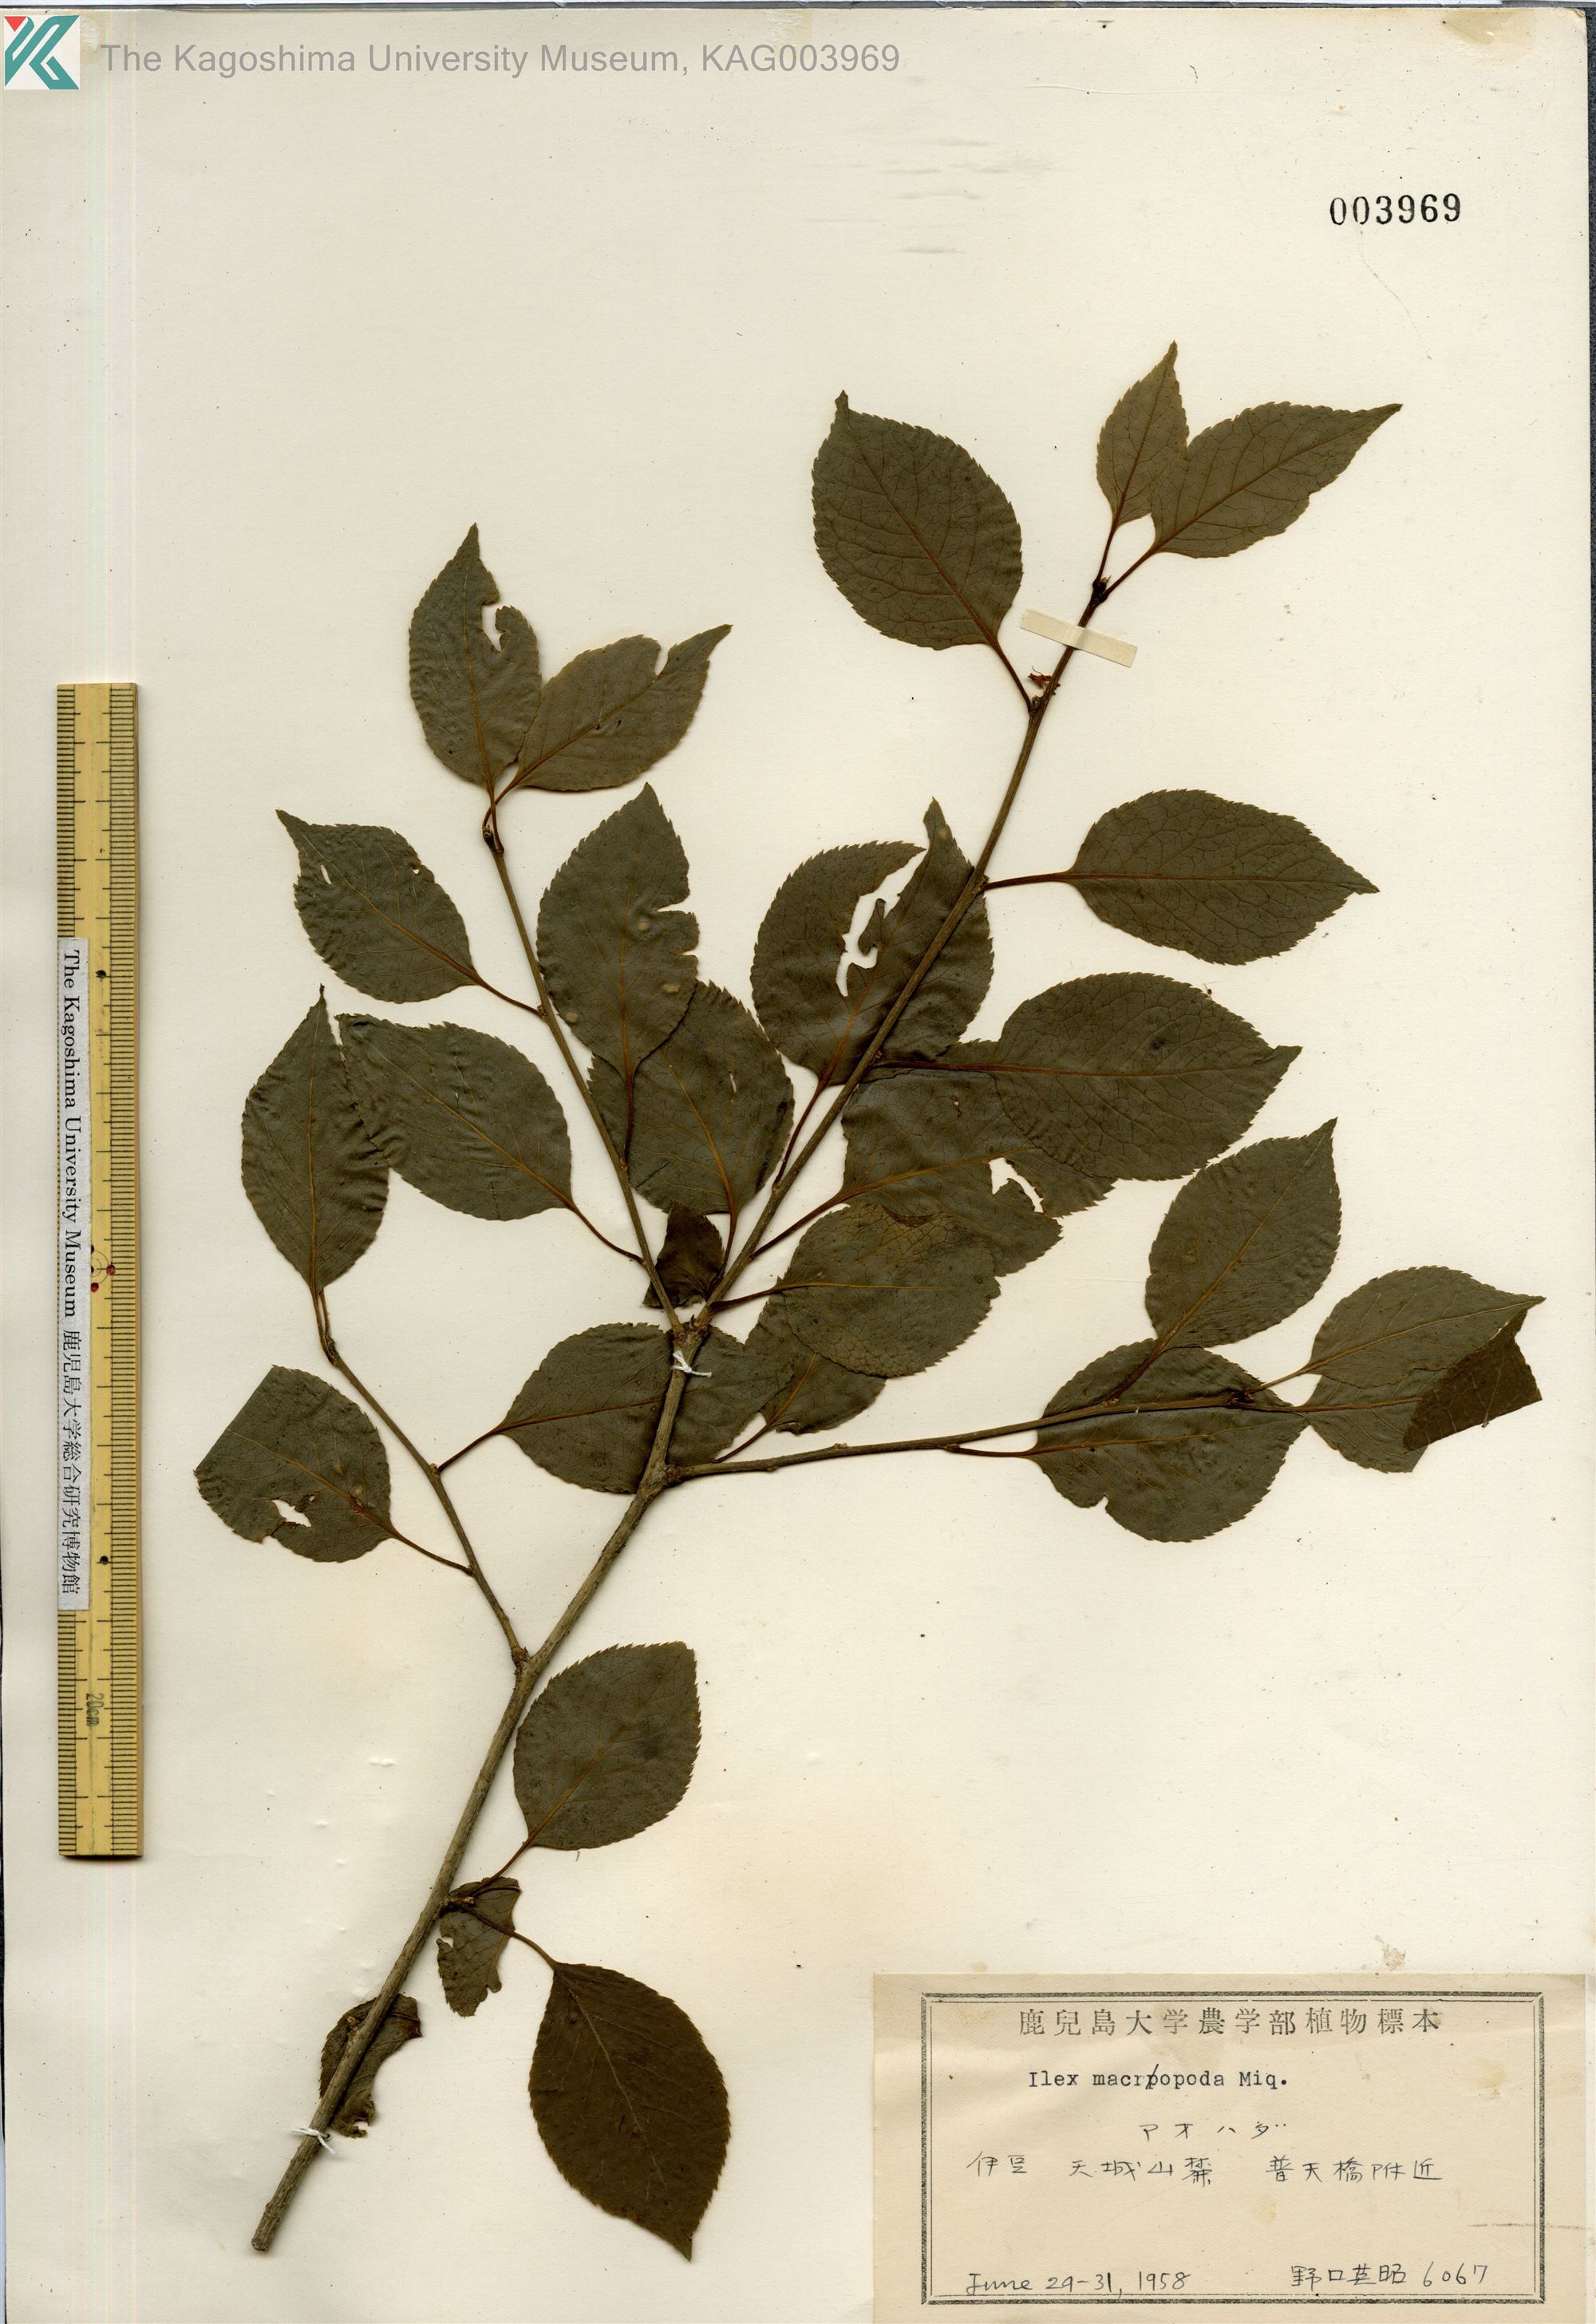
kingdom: Plantae
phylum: Tracheophyta
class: Magnoliopsida
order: Aquifoliales
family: Aquifoliaceae
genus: Ilex
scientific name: Ilex macropoda
